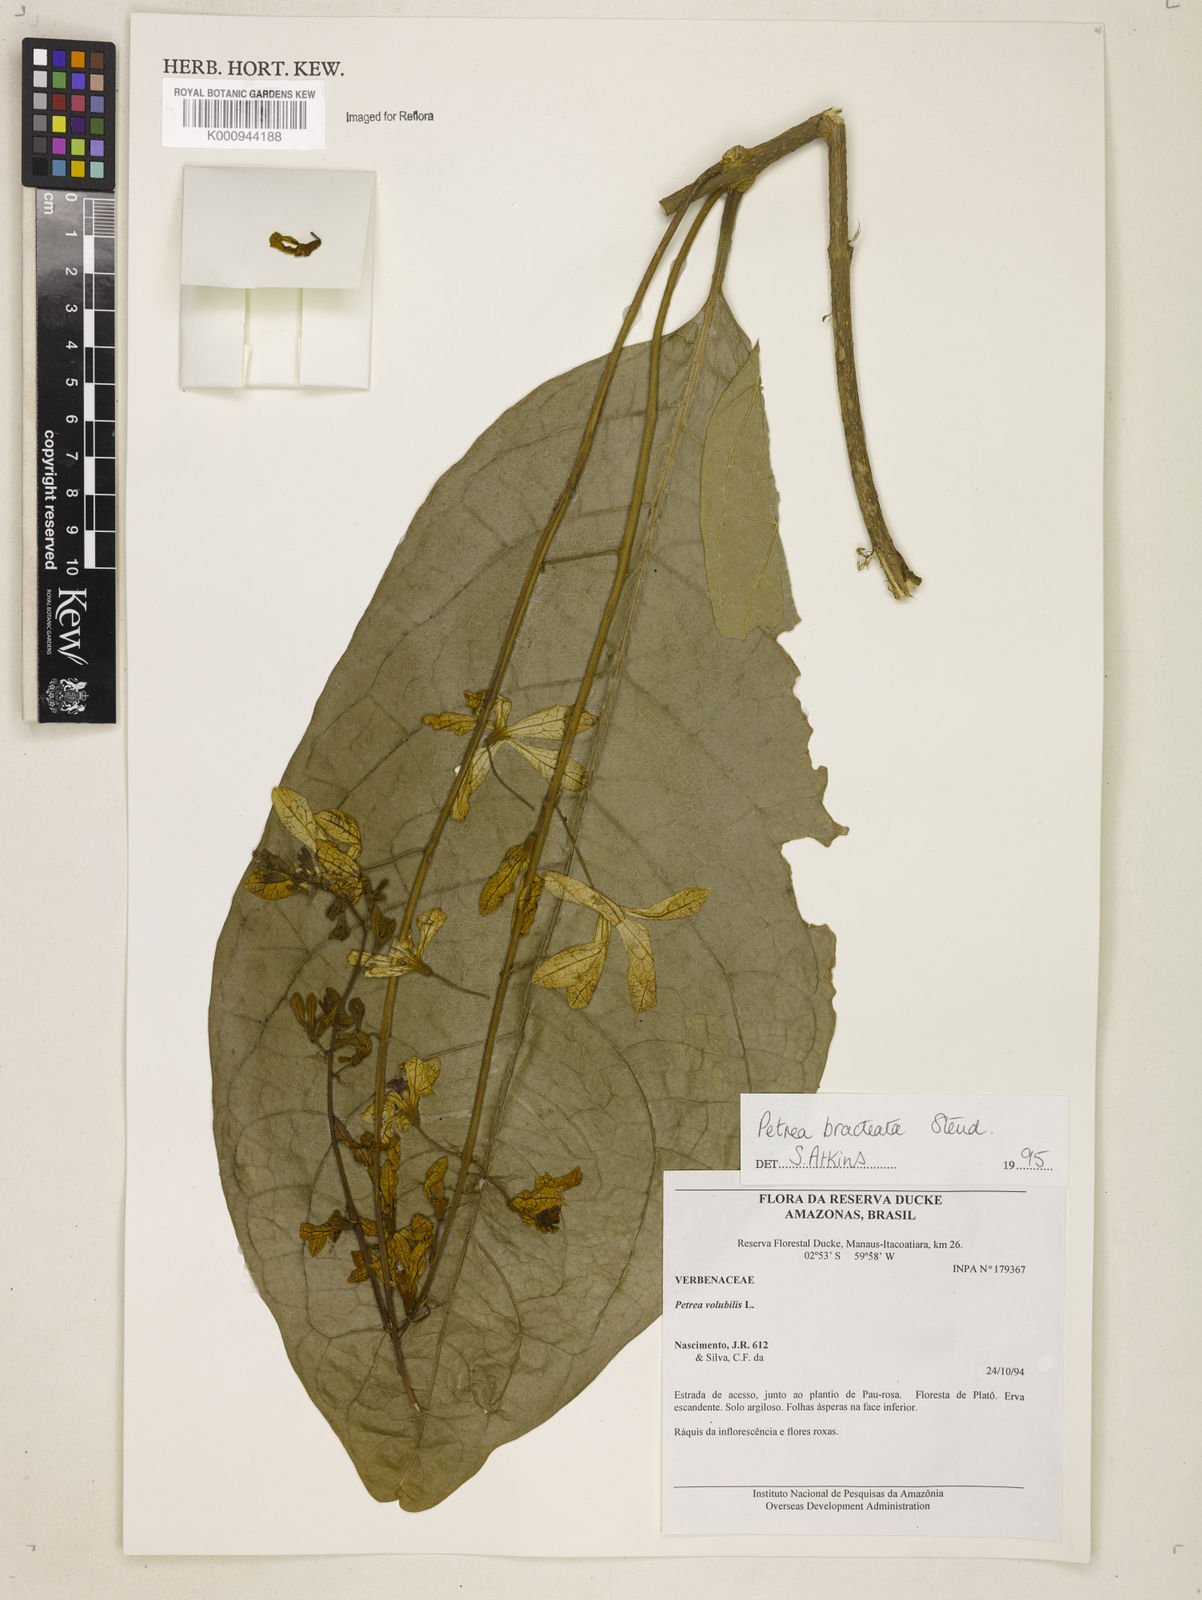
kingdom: Plantae
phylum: Tracheophyta
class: Magnoliopsida
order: Lamiales
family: Verbenaceae
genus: Petrea
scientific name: Petrea bracteata
